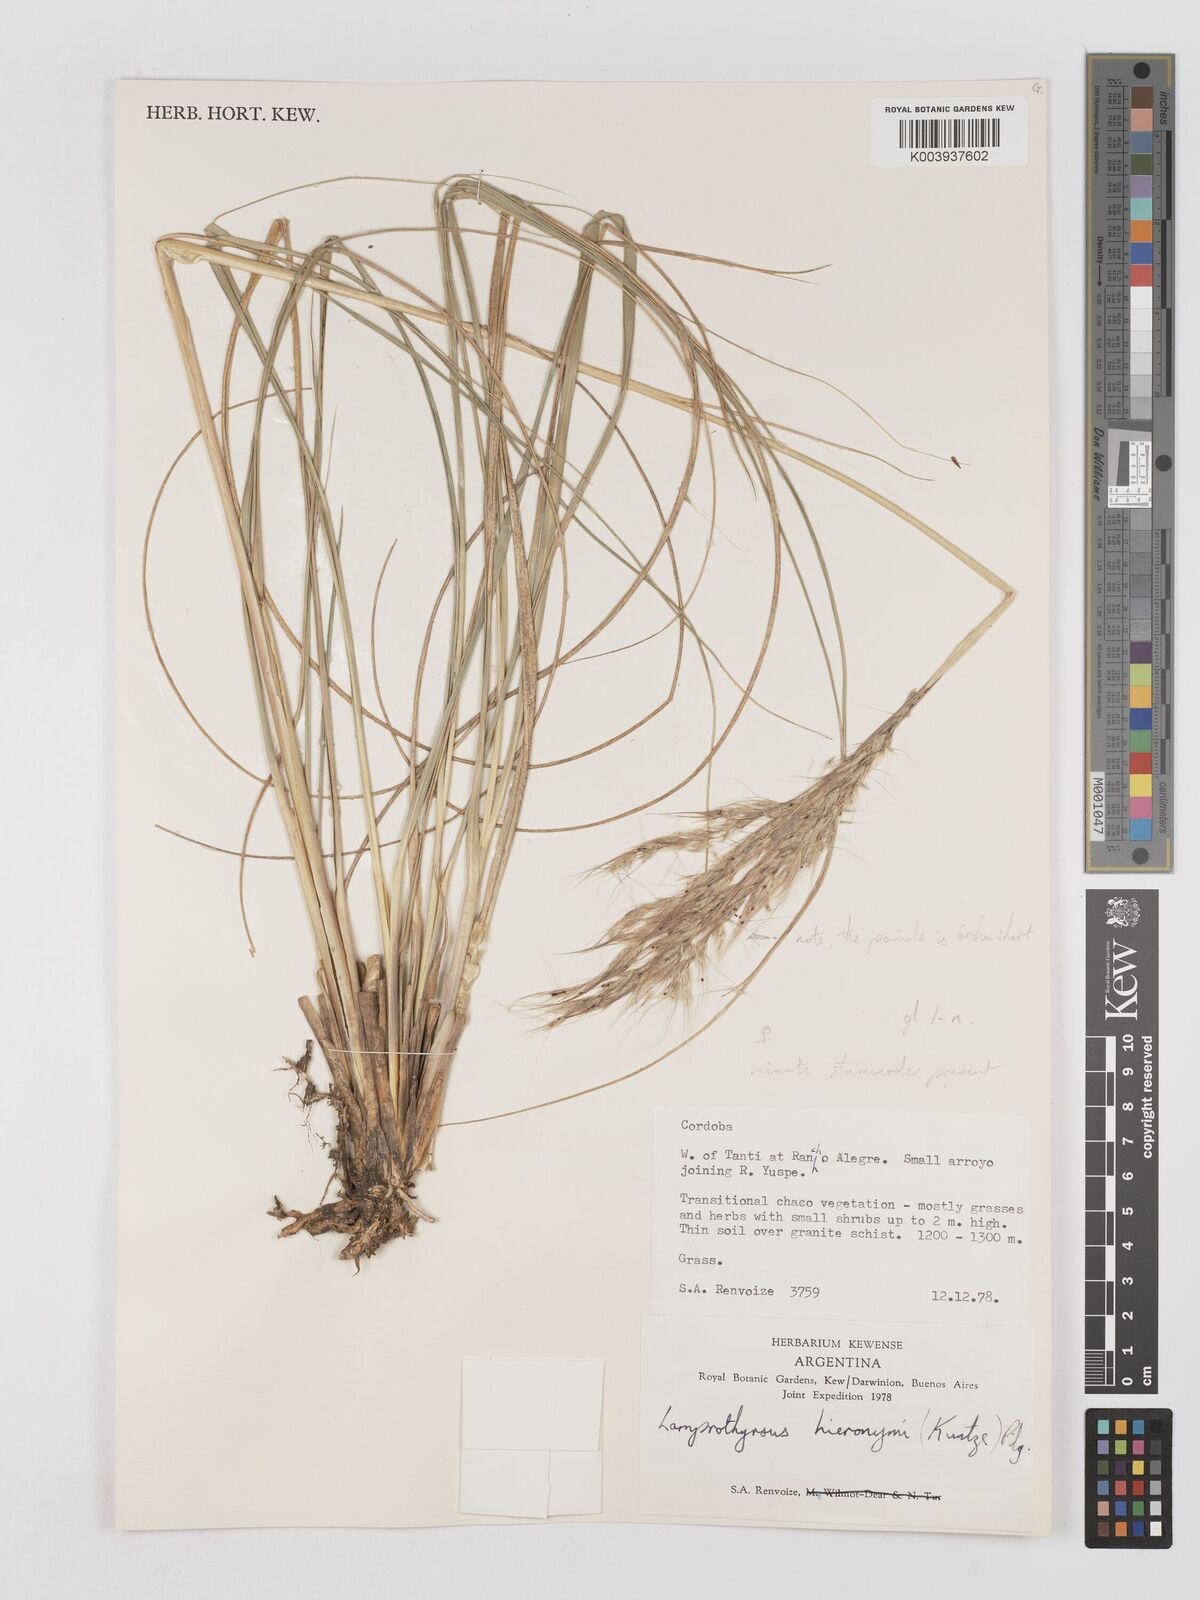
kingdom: Plantae
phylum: Tracheophyta
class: Liliopsida
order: Poales
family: Poaceae
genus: Cortaderia
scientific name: Cortaderia hieronymi
